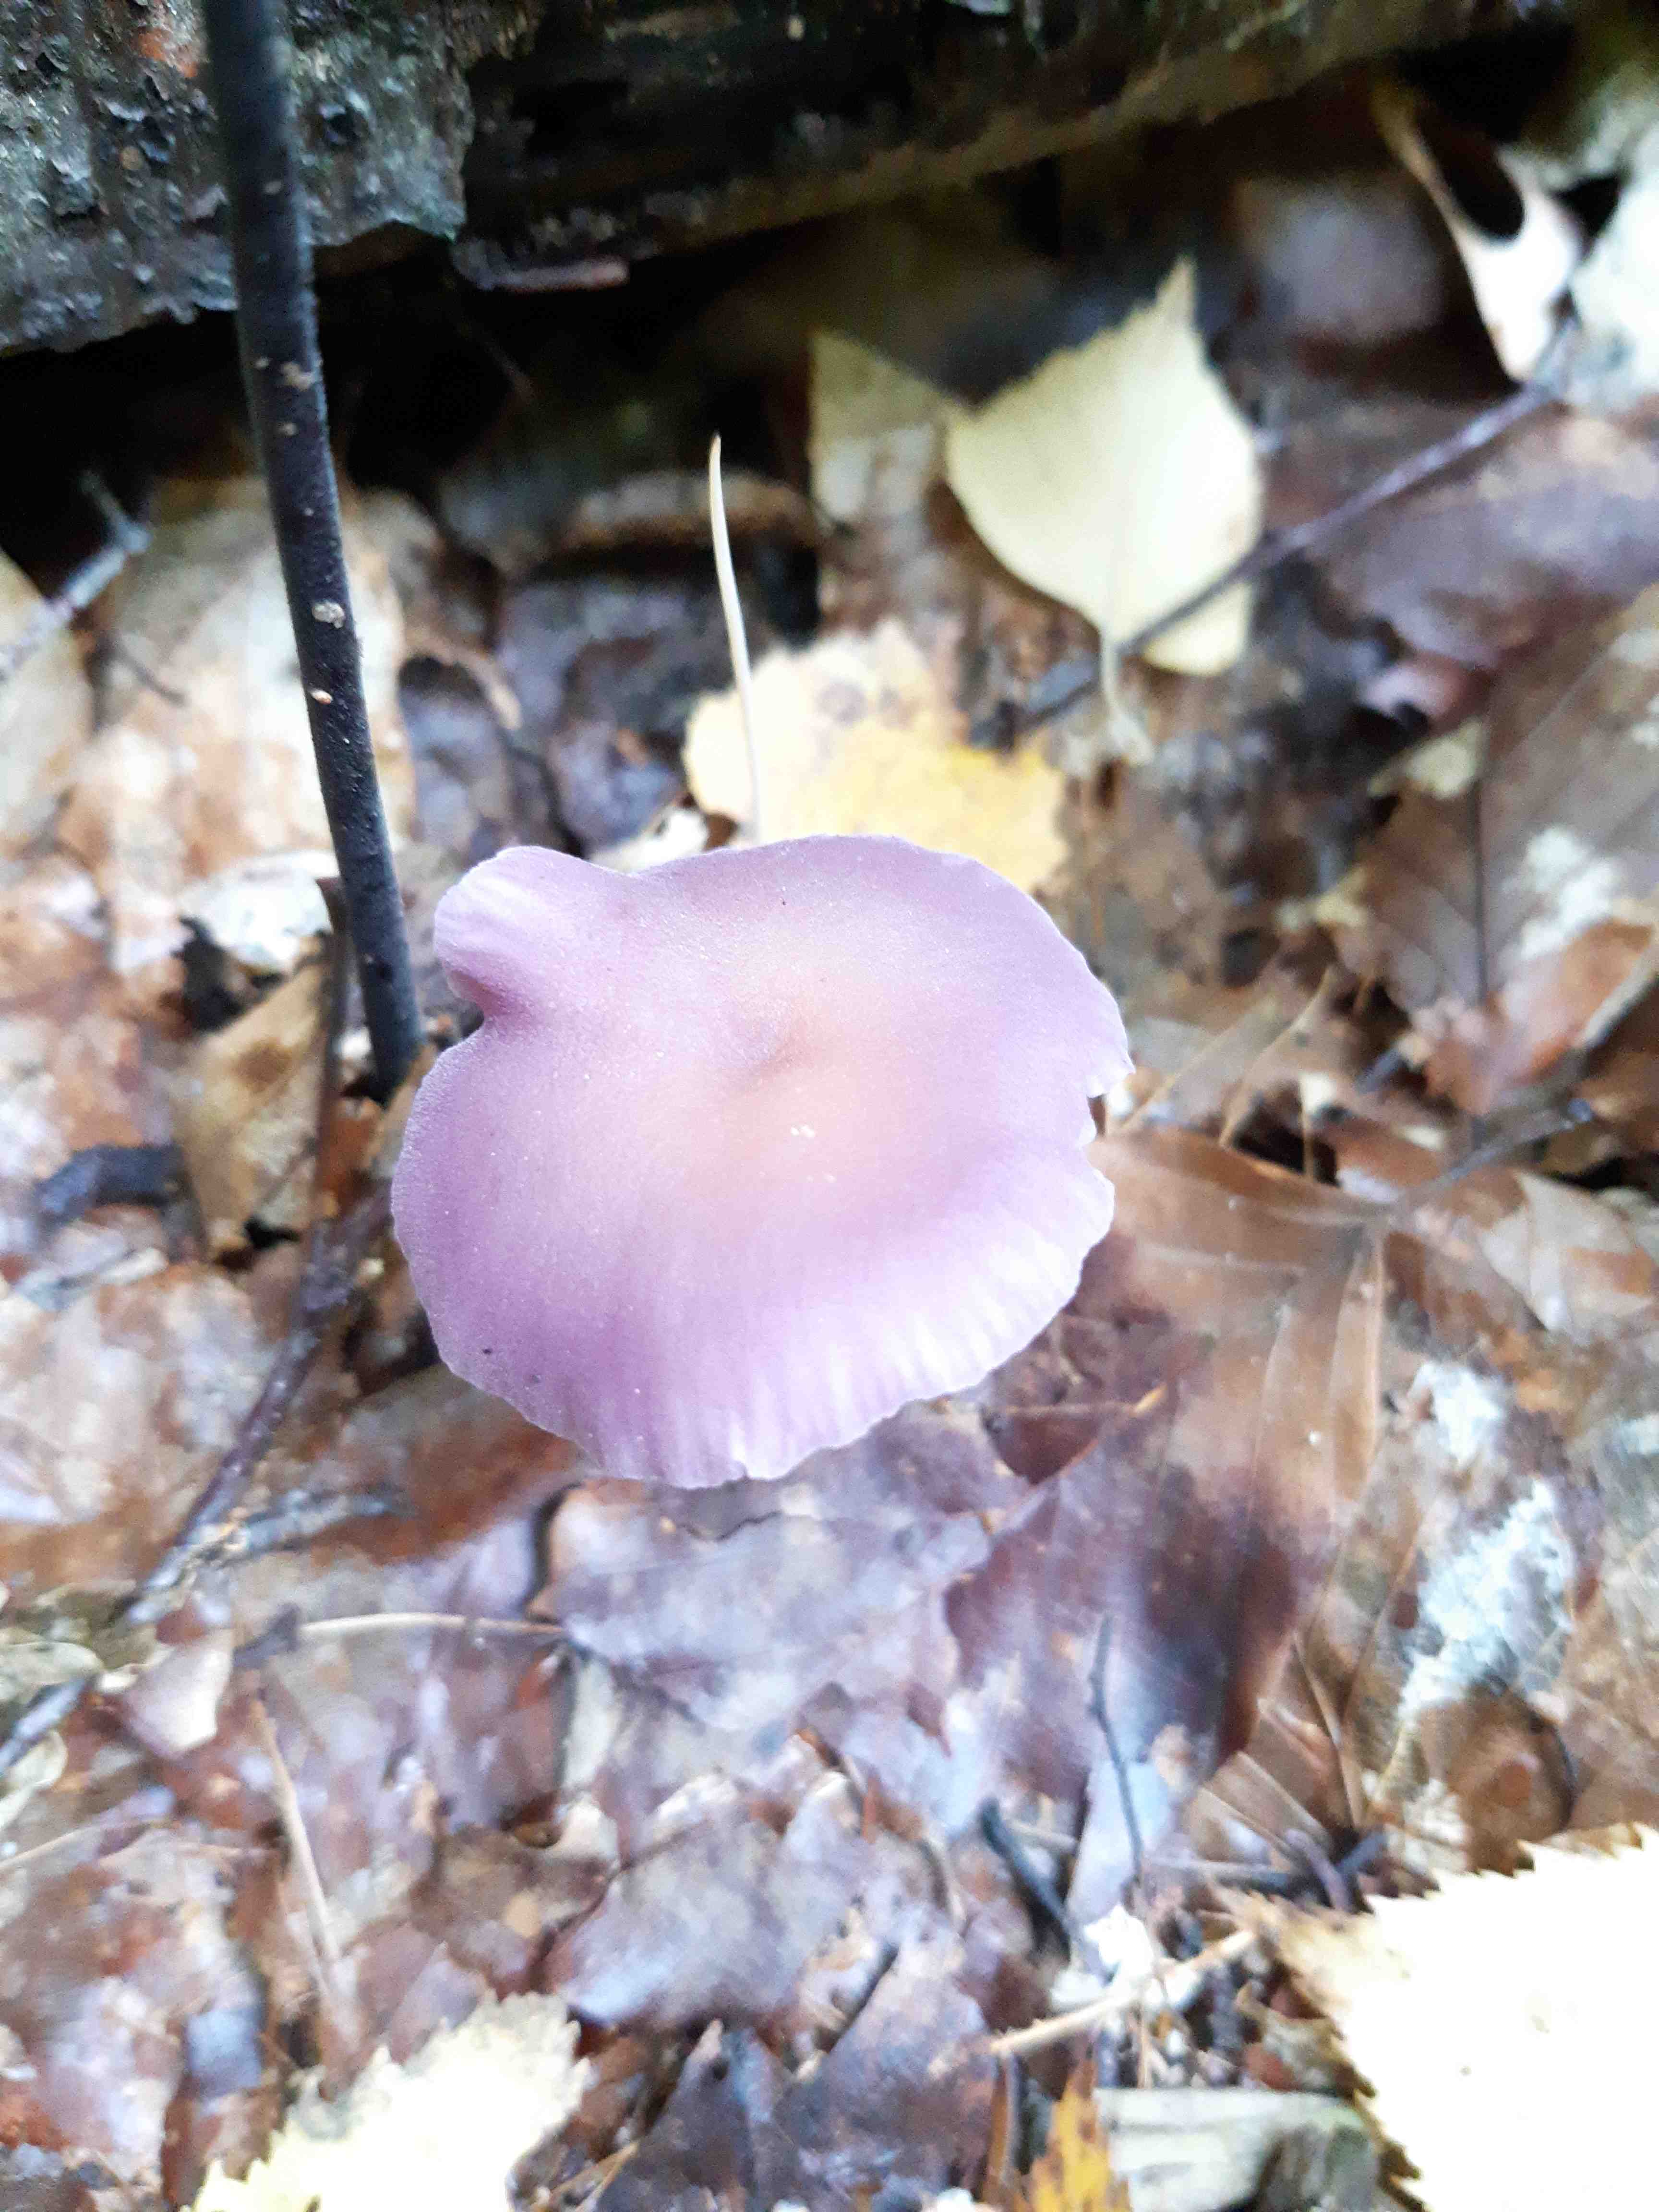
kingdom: Fungi
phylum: Basidiomycota
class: Agaricomycetes
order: Agaricales
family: Hydnangiaceae
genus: Laccaria
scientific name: Laccaria amethystina
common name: violet ametysthat
